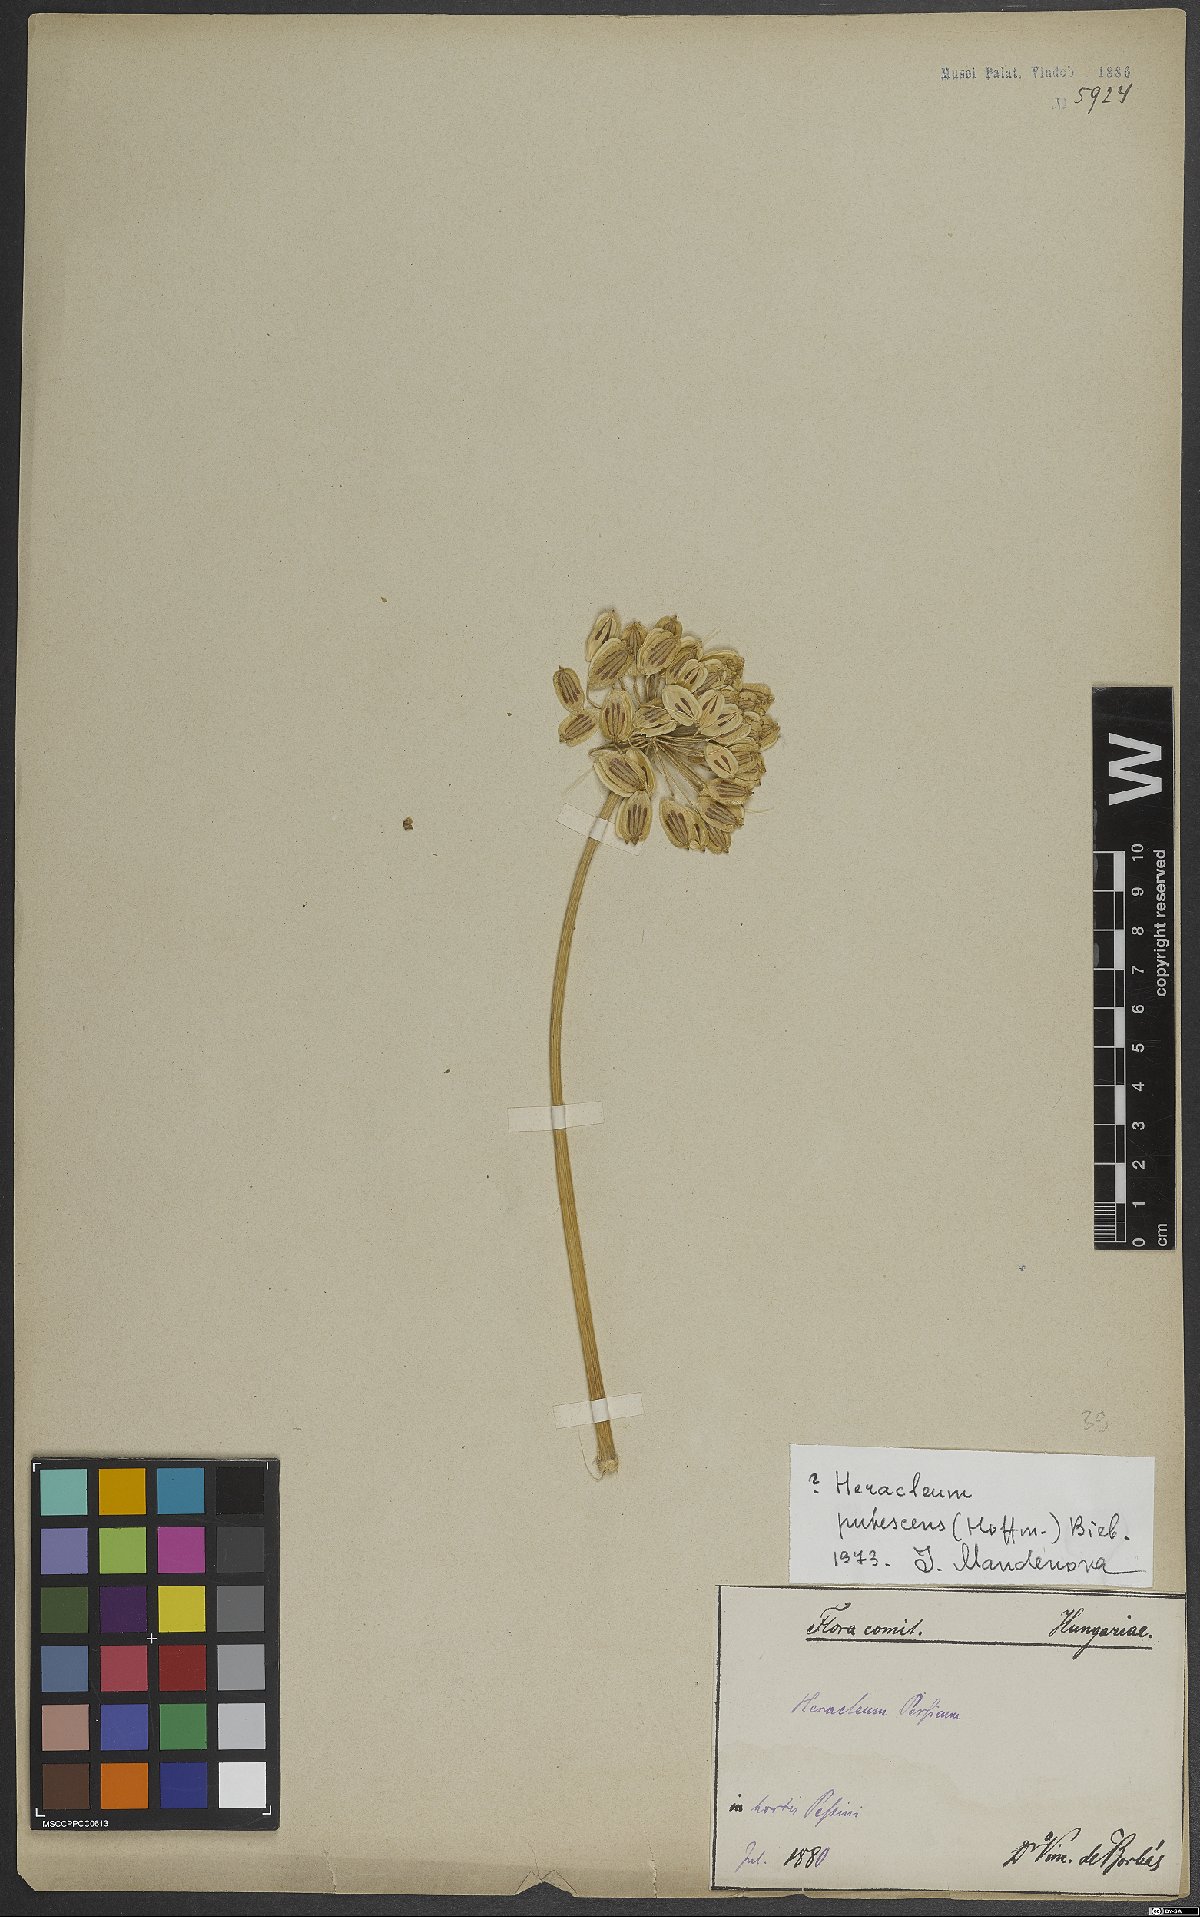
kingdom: Plantae
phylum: Tracheophyta
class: Magnoliopsida
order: Apiales
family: Apiaceae
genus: Heracleum
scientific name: Heracleum pubescens
